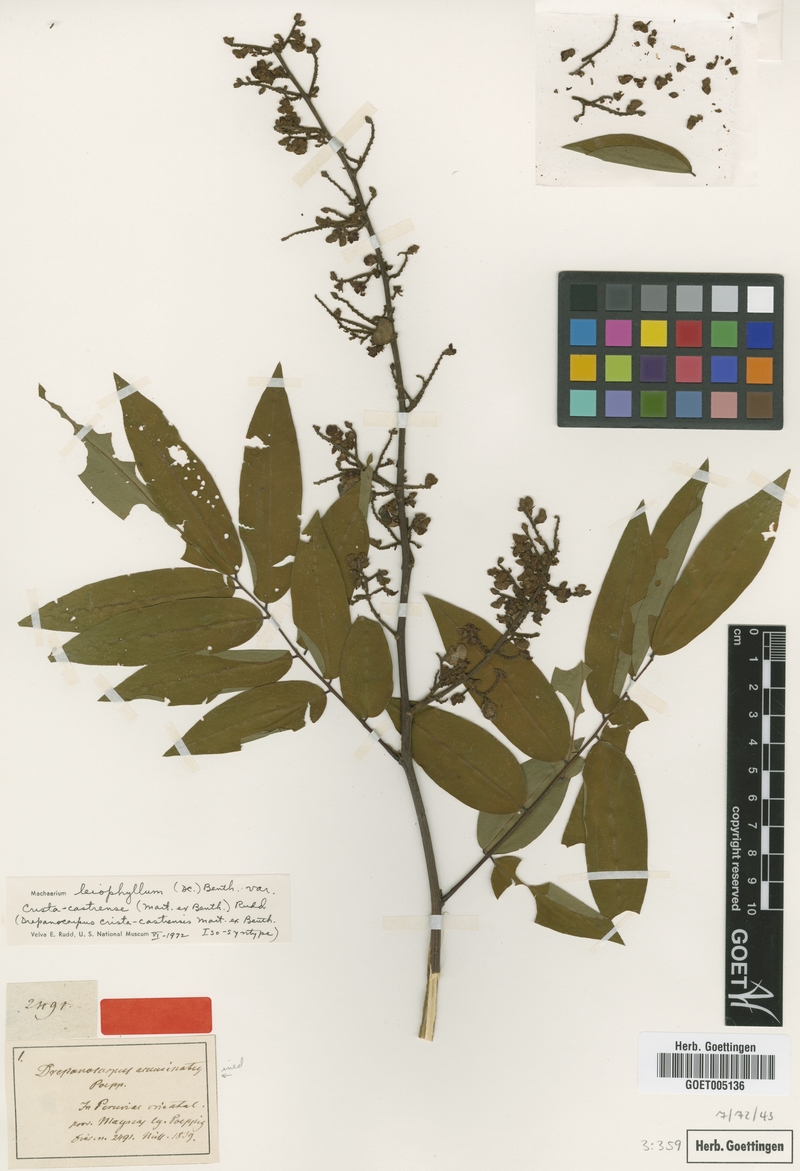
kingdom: Plantae
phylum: Tracheophyta
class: Magnoliopsida
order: Fabales
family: Fabaceae
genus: Machaerium
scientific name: Machaerium leiophyllum
